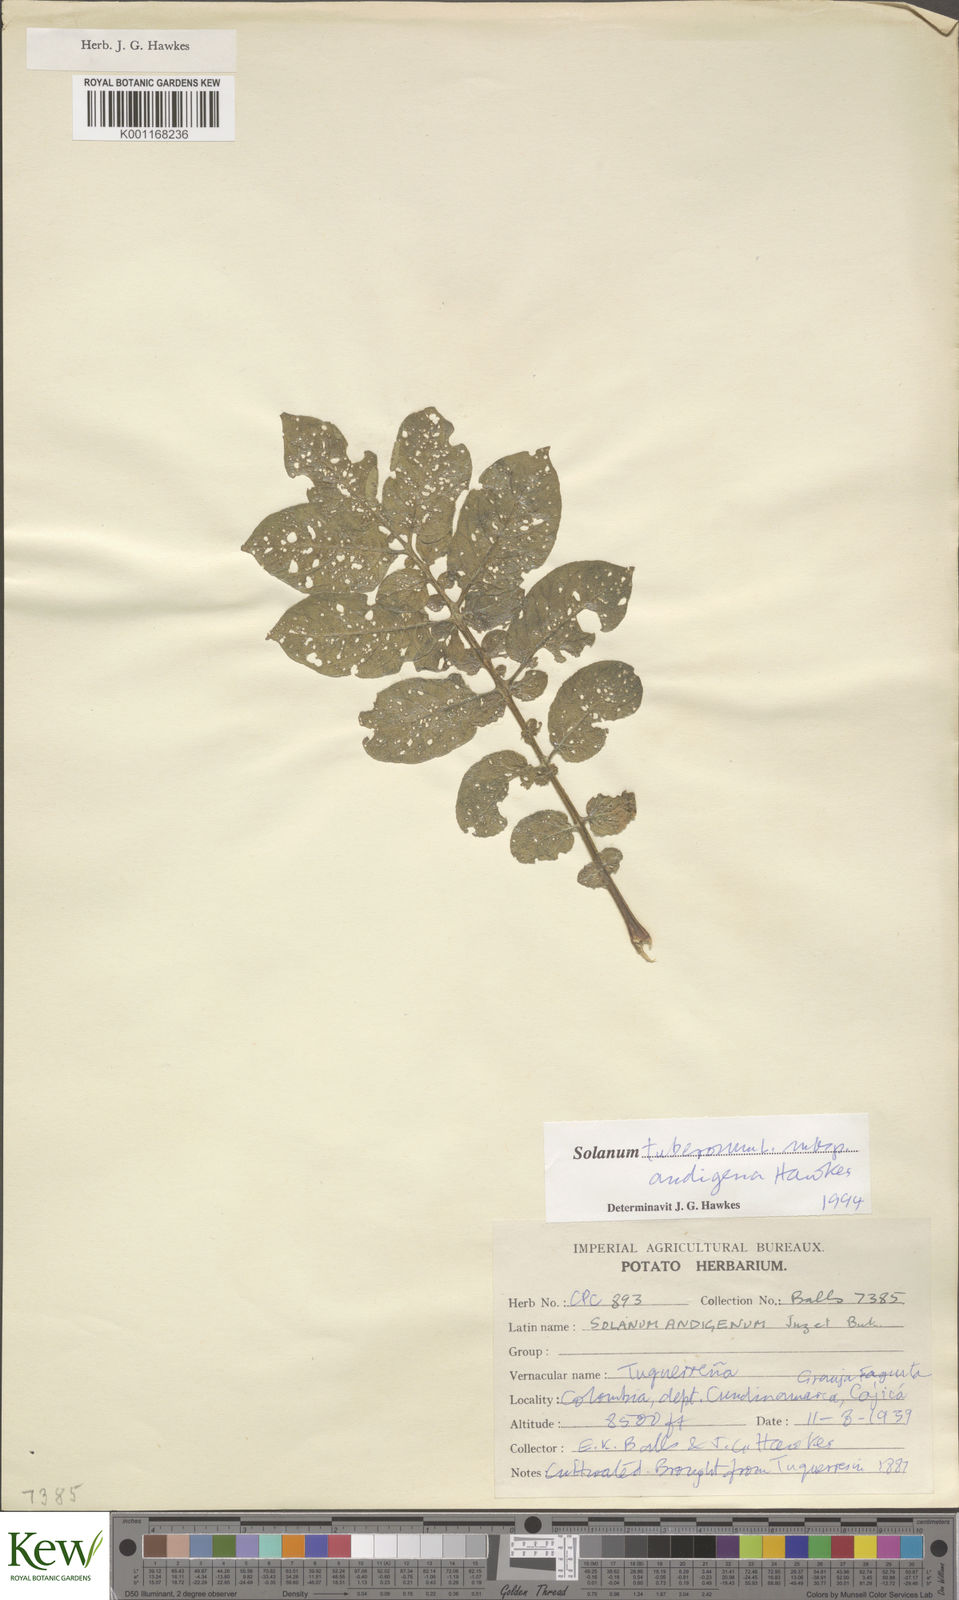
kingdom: Plantae
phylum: Tracheophyta
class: Magnoliopsida
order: Solanales
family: Solanaceae
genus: Solanum
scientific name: Solanum tuberosum
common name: Potato
